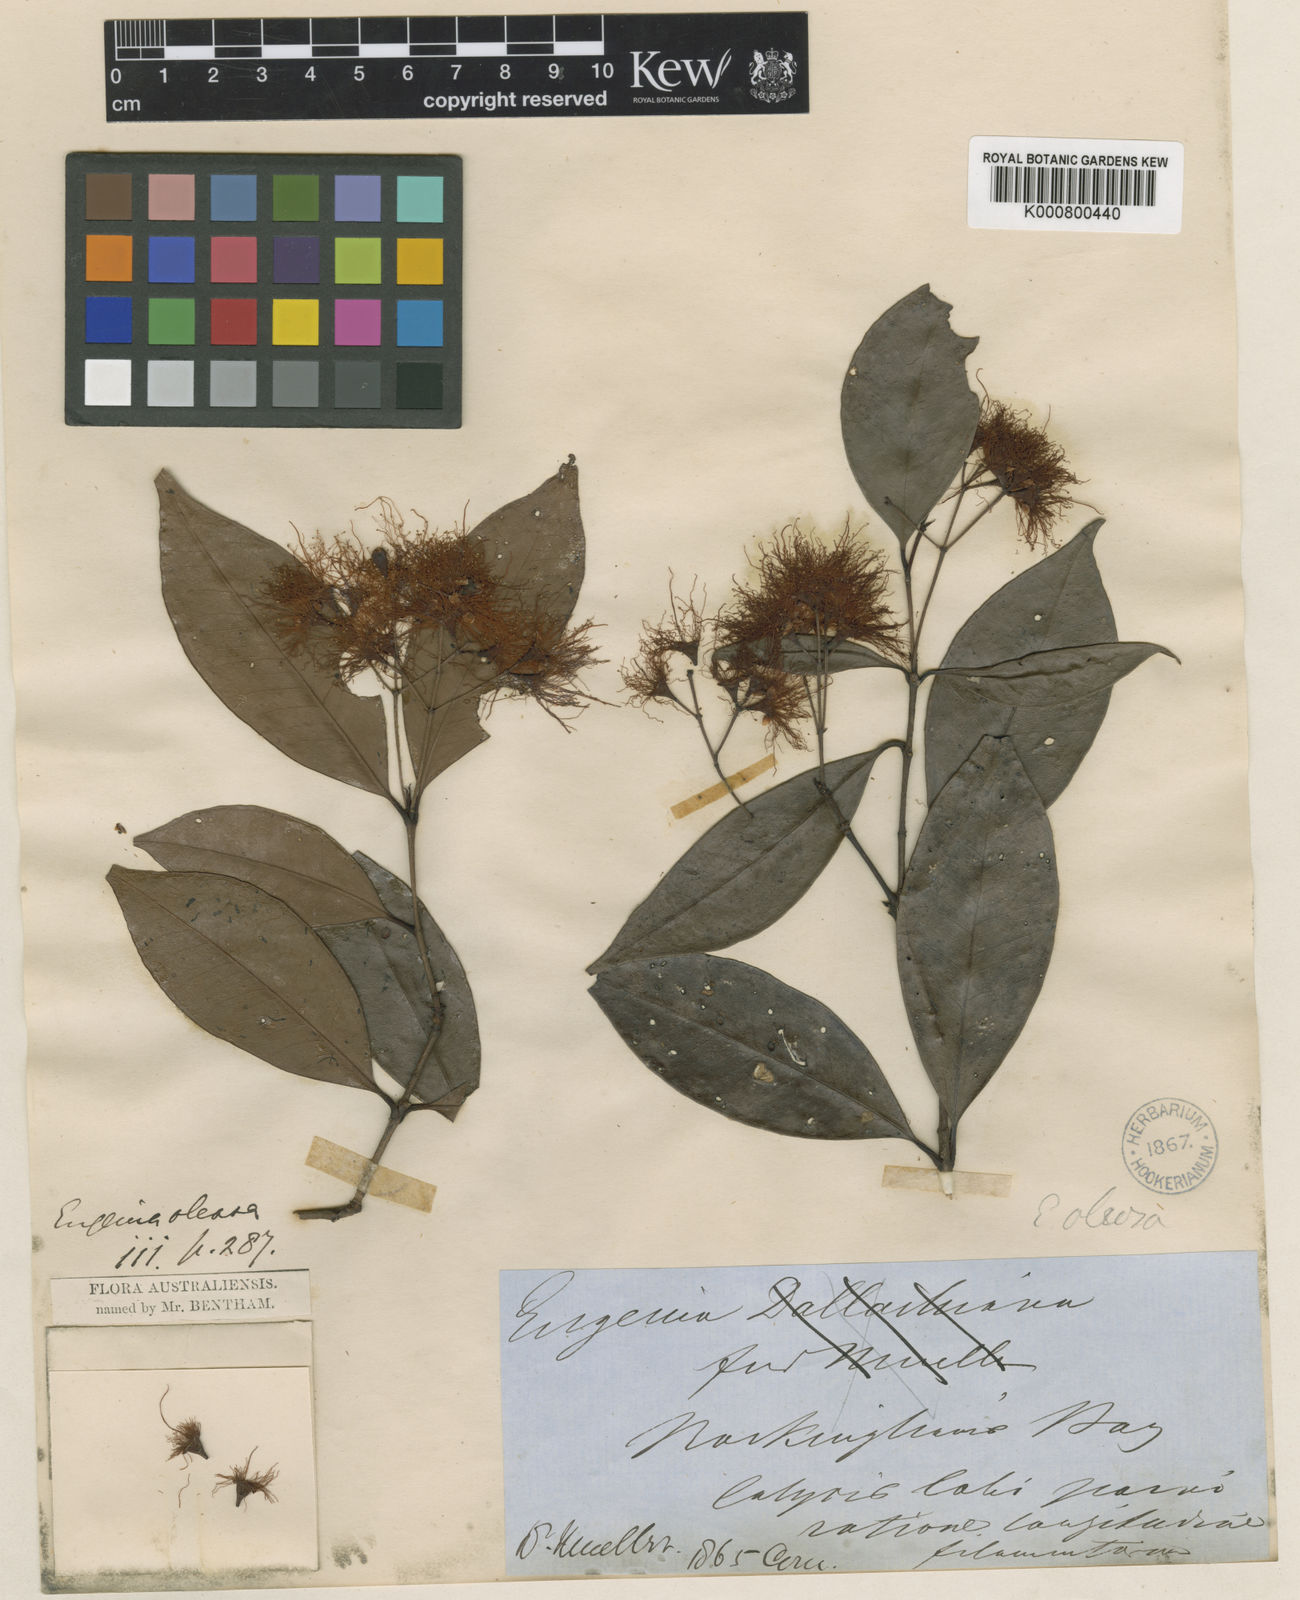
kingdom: Plantae
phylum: Tracheophyta
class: Magnoliopsida
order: Myrtales
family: Myrtaceae
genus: Syzygium
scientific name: Syzygium oleosum
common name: Oily satin-ash
